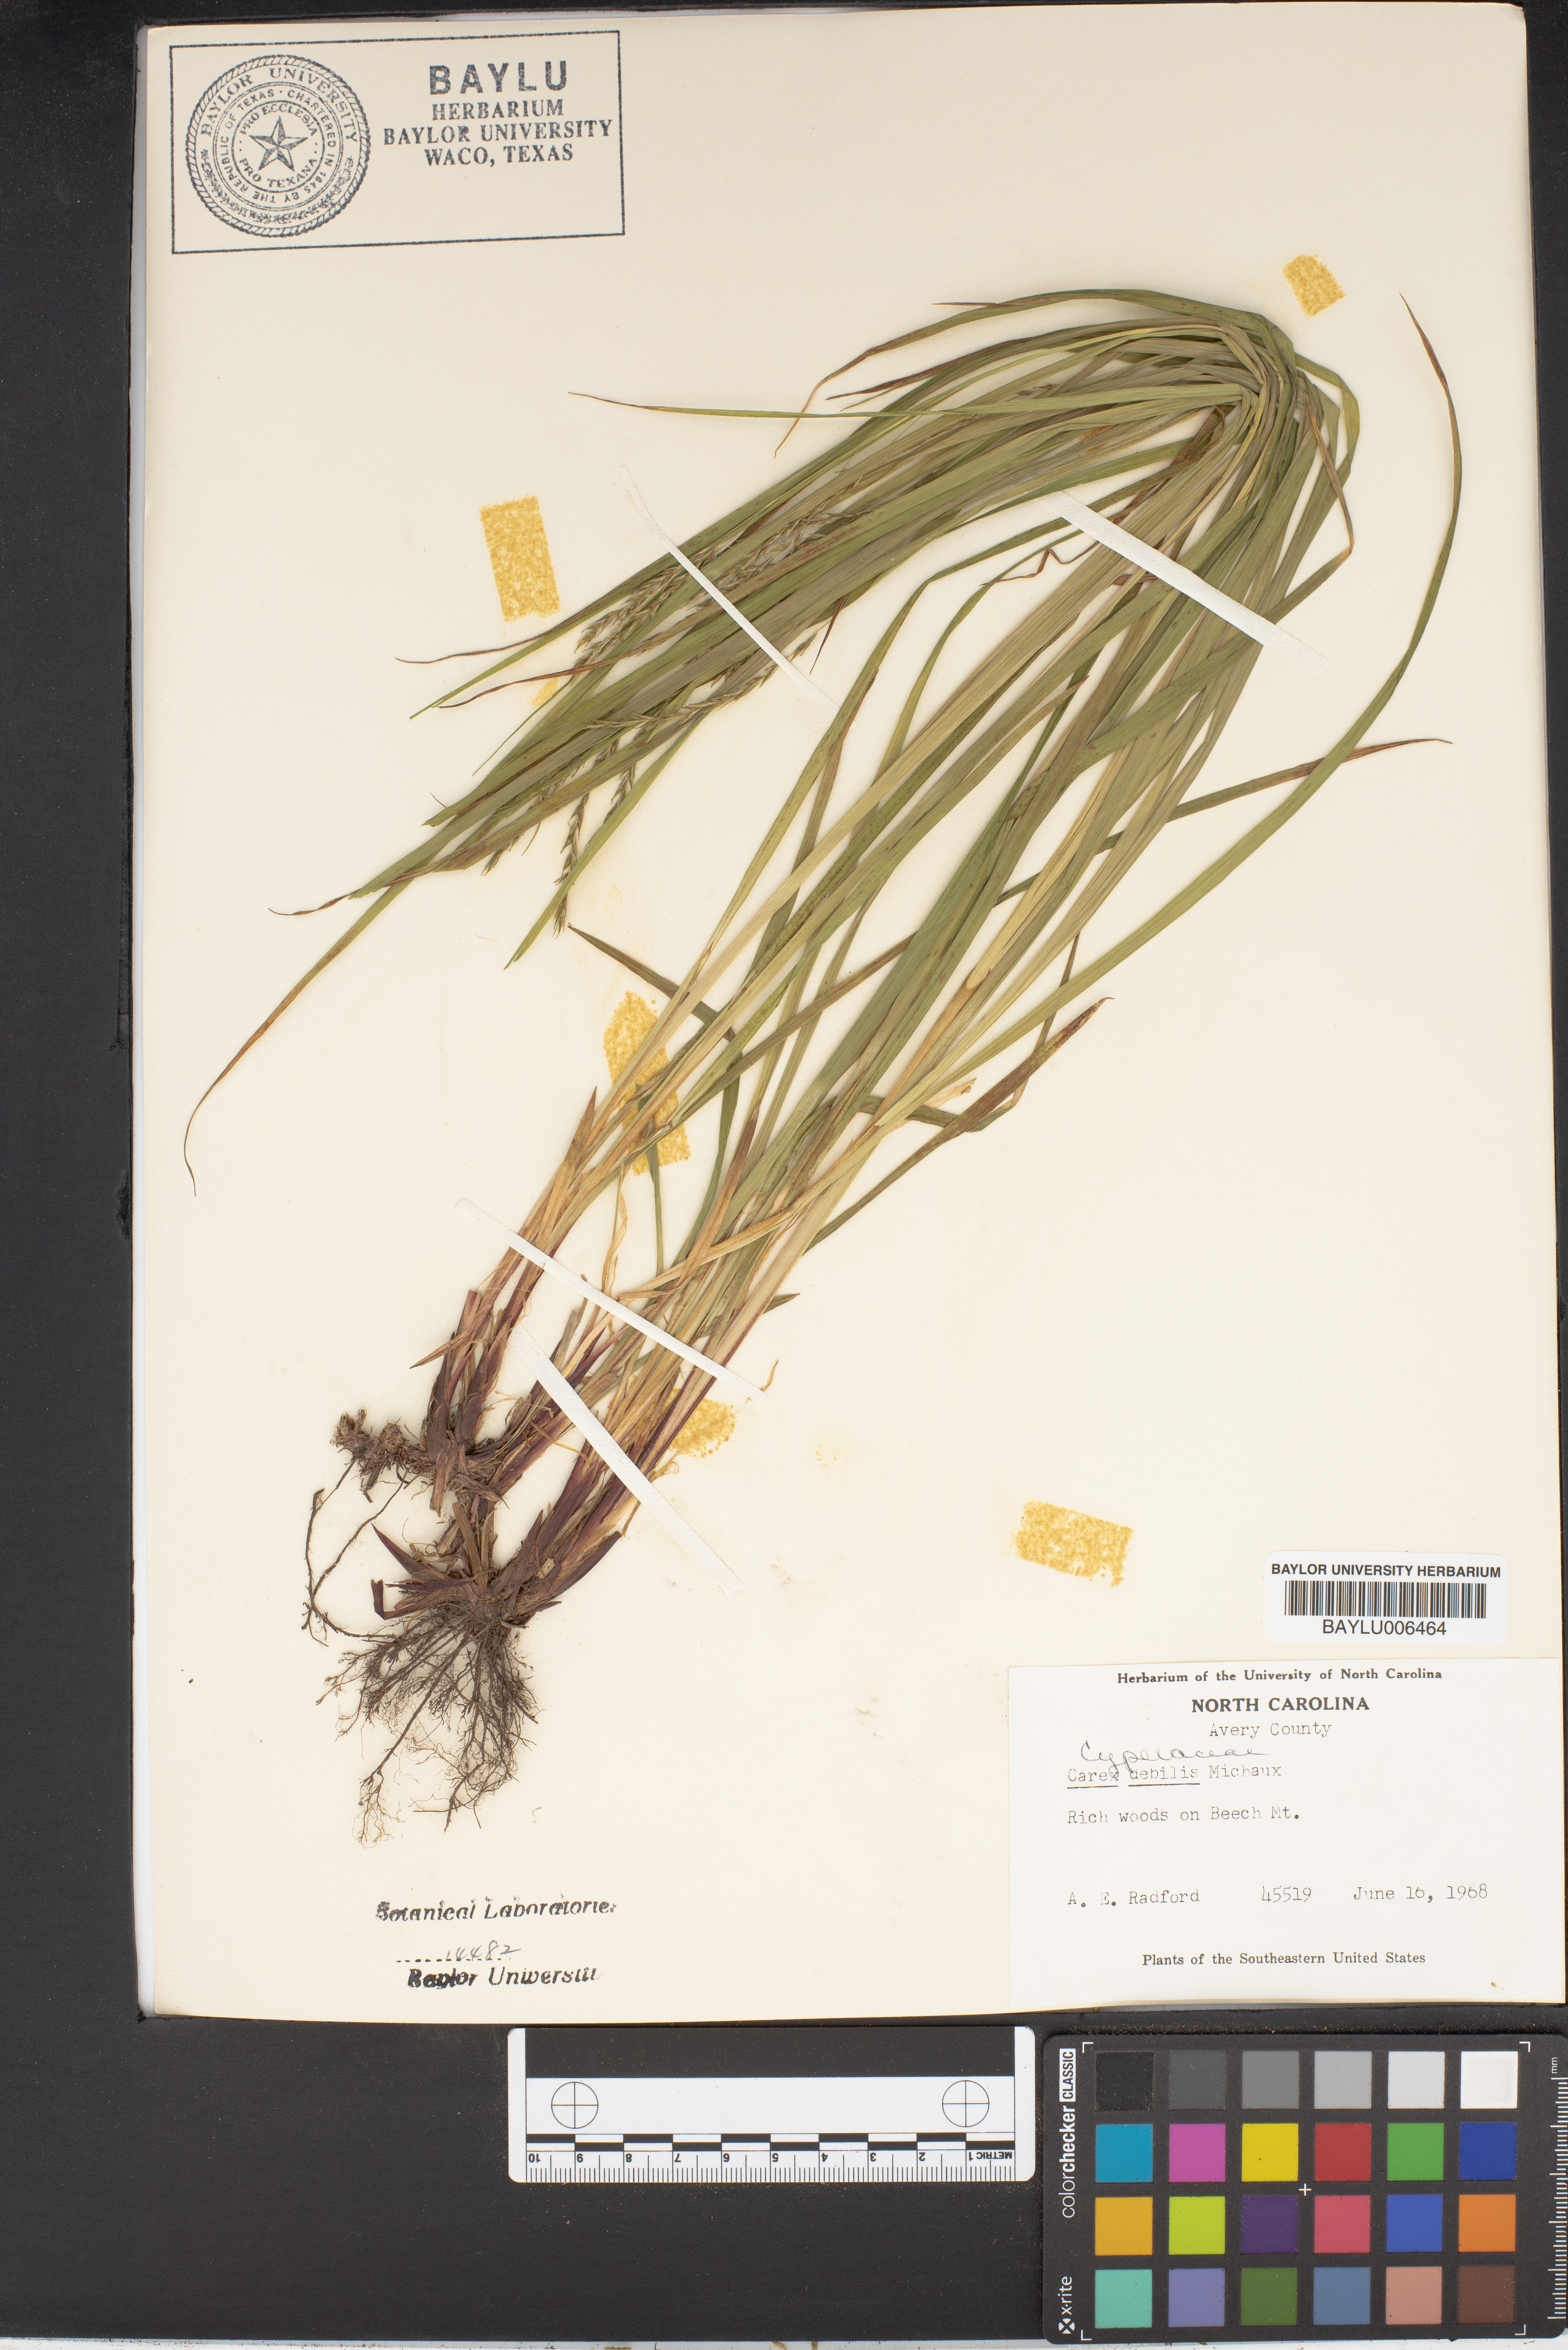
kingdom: Plantae
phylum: Tracheophyta
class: Liliopsida
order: Poales
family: Cyperaceae
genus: Carex
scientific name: Carex debilis
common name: White-edge sedge
